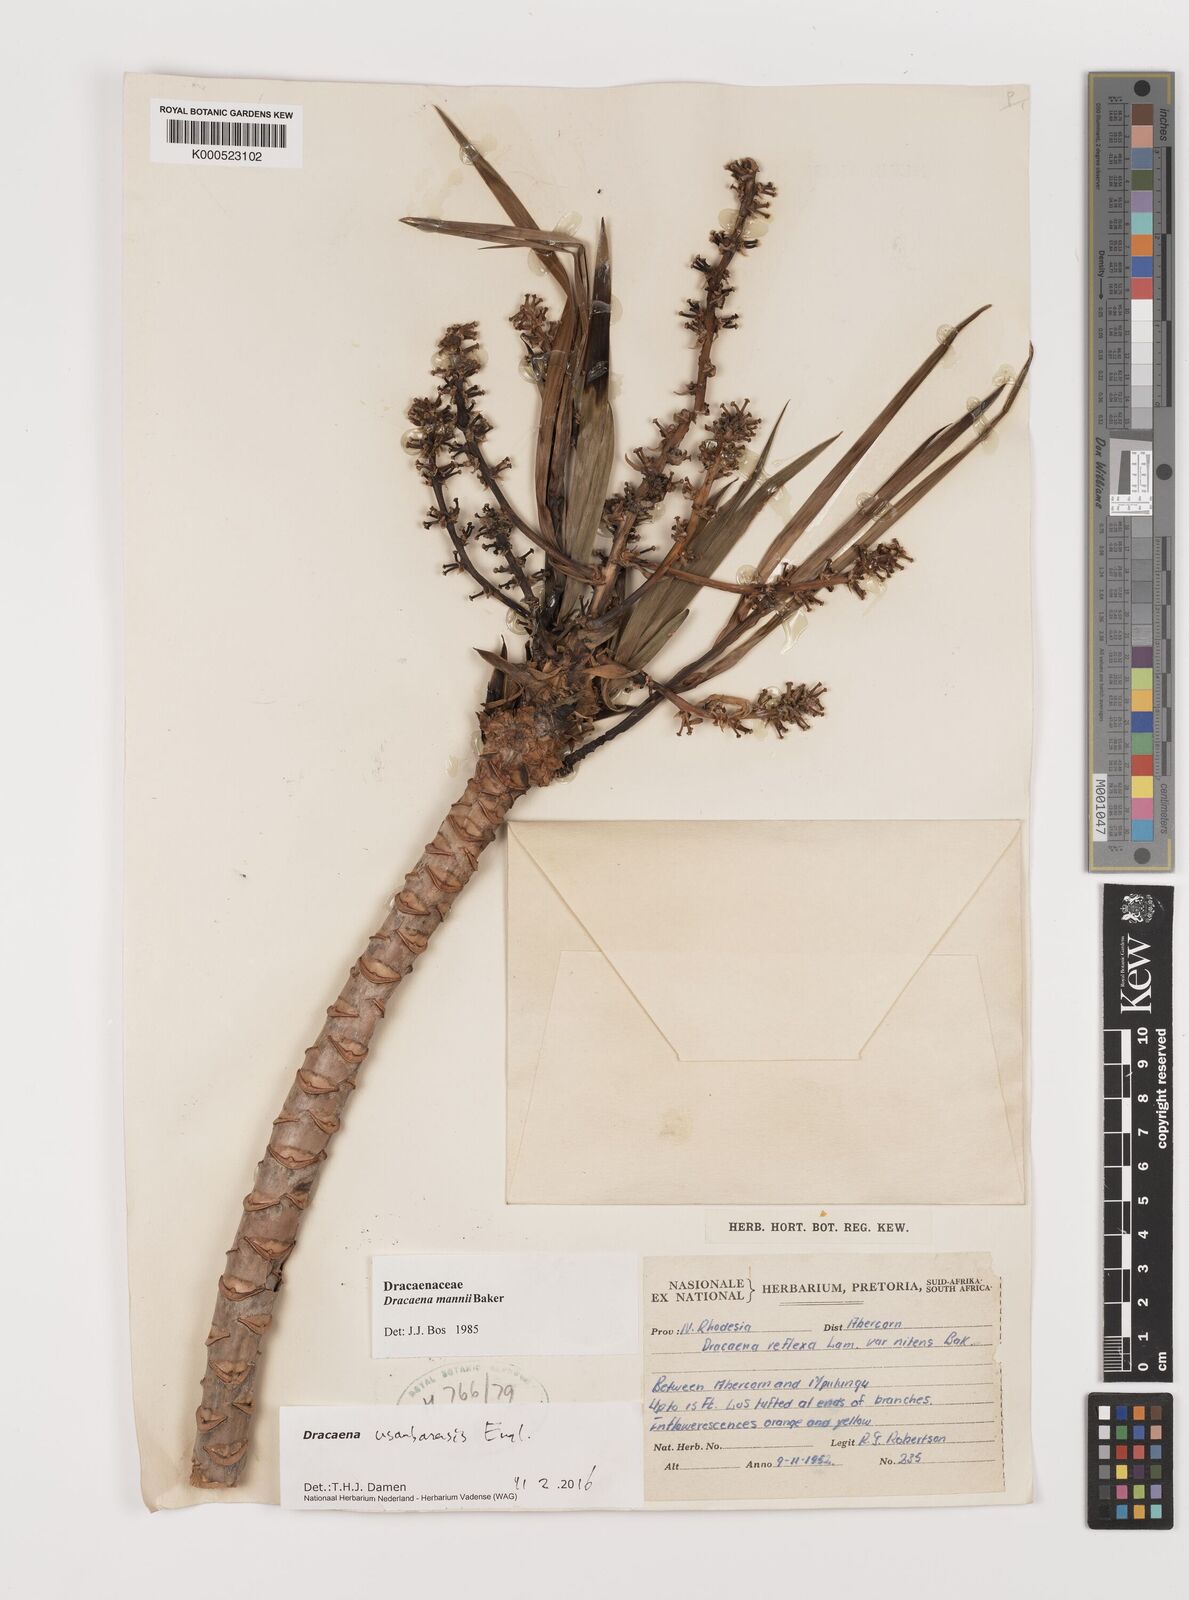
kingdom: Plantae
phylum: Tracheophyta
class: Liliopsida
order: Asparagales
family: Asparagaceae
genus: Dracaena
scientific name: Dracaena usambarensis
